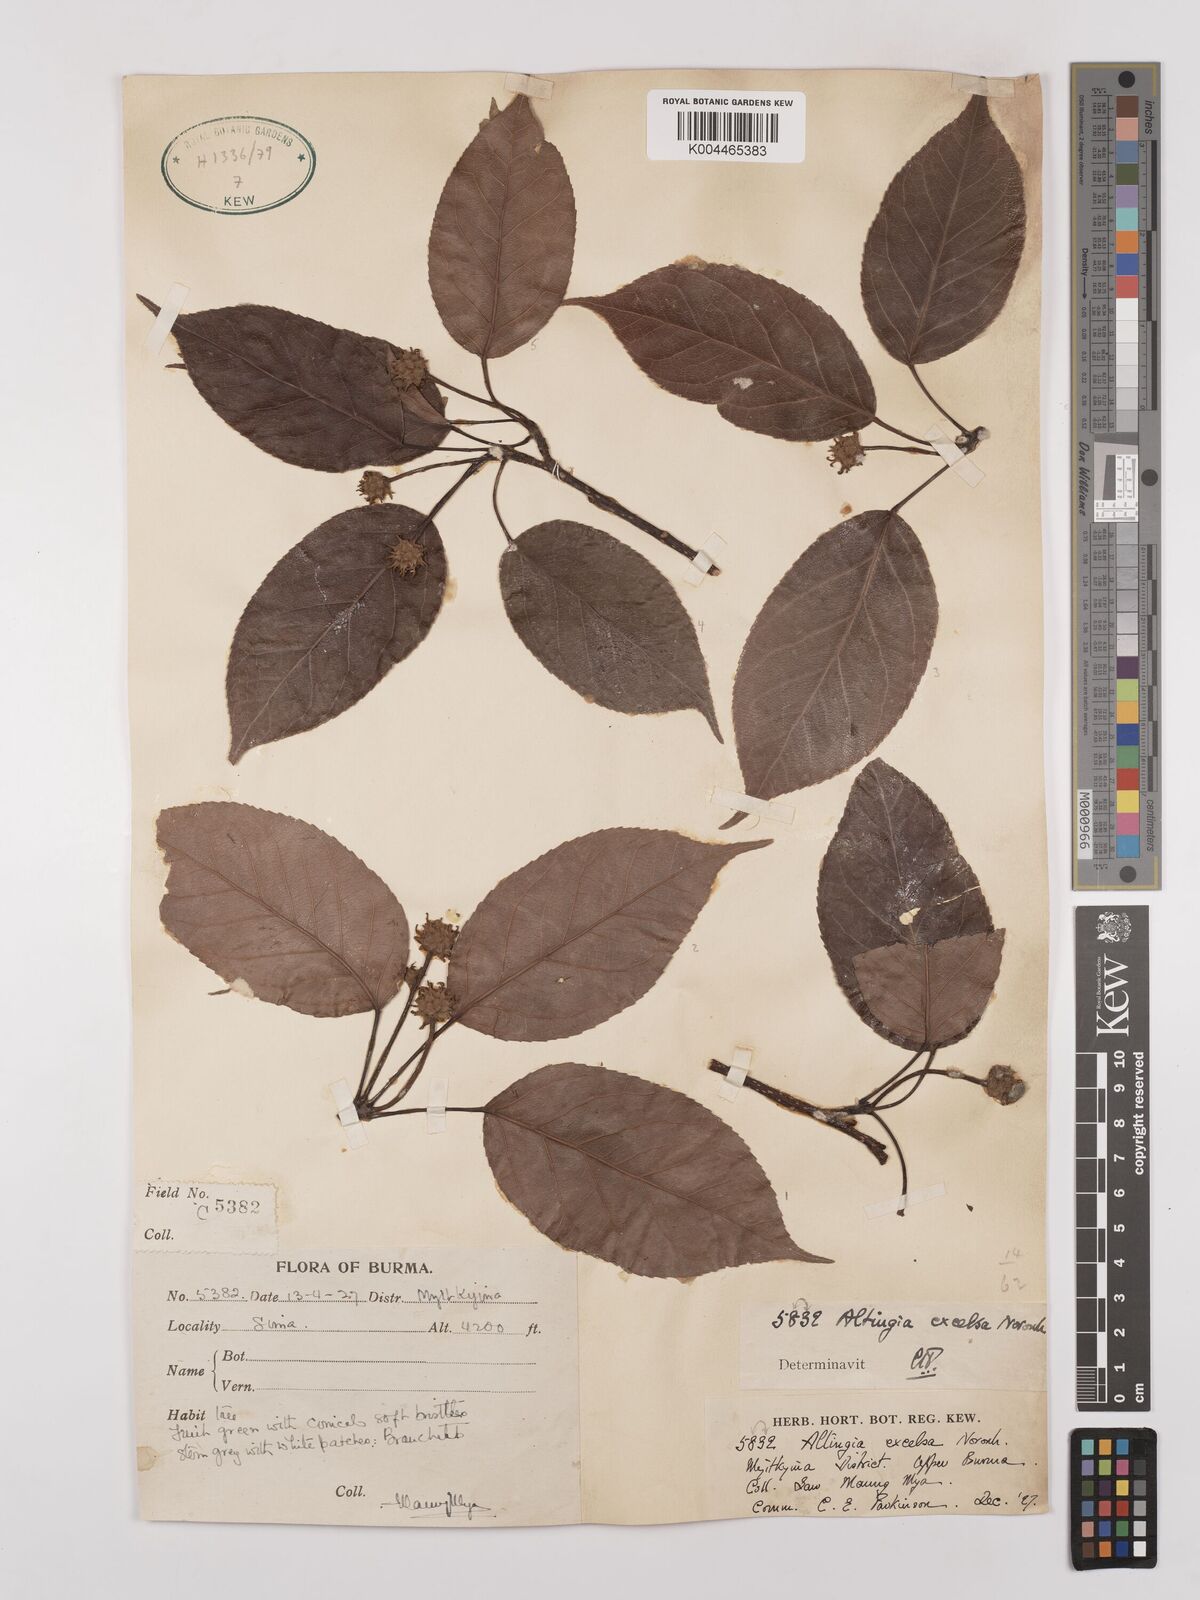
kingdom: Plantae
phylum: Tracheophyta
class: Magnoliopsida
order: Saxifragales
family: Altingiaceae
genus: Liquidambar
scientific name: Liquidambar excelsa
